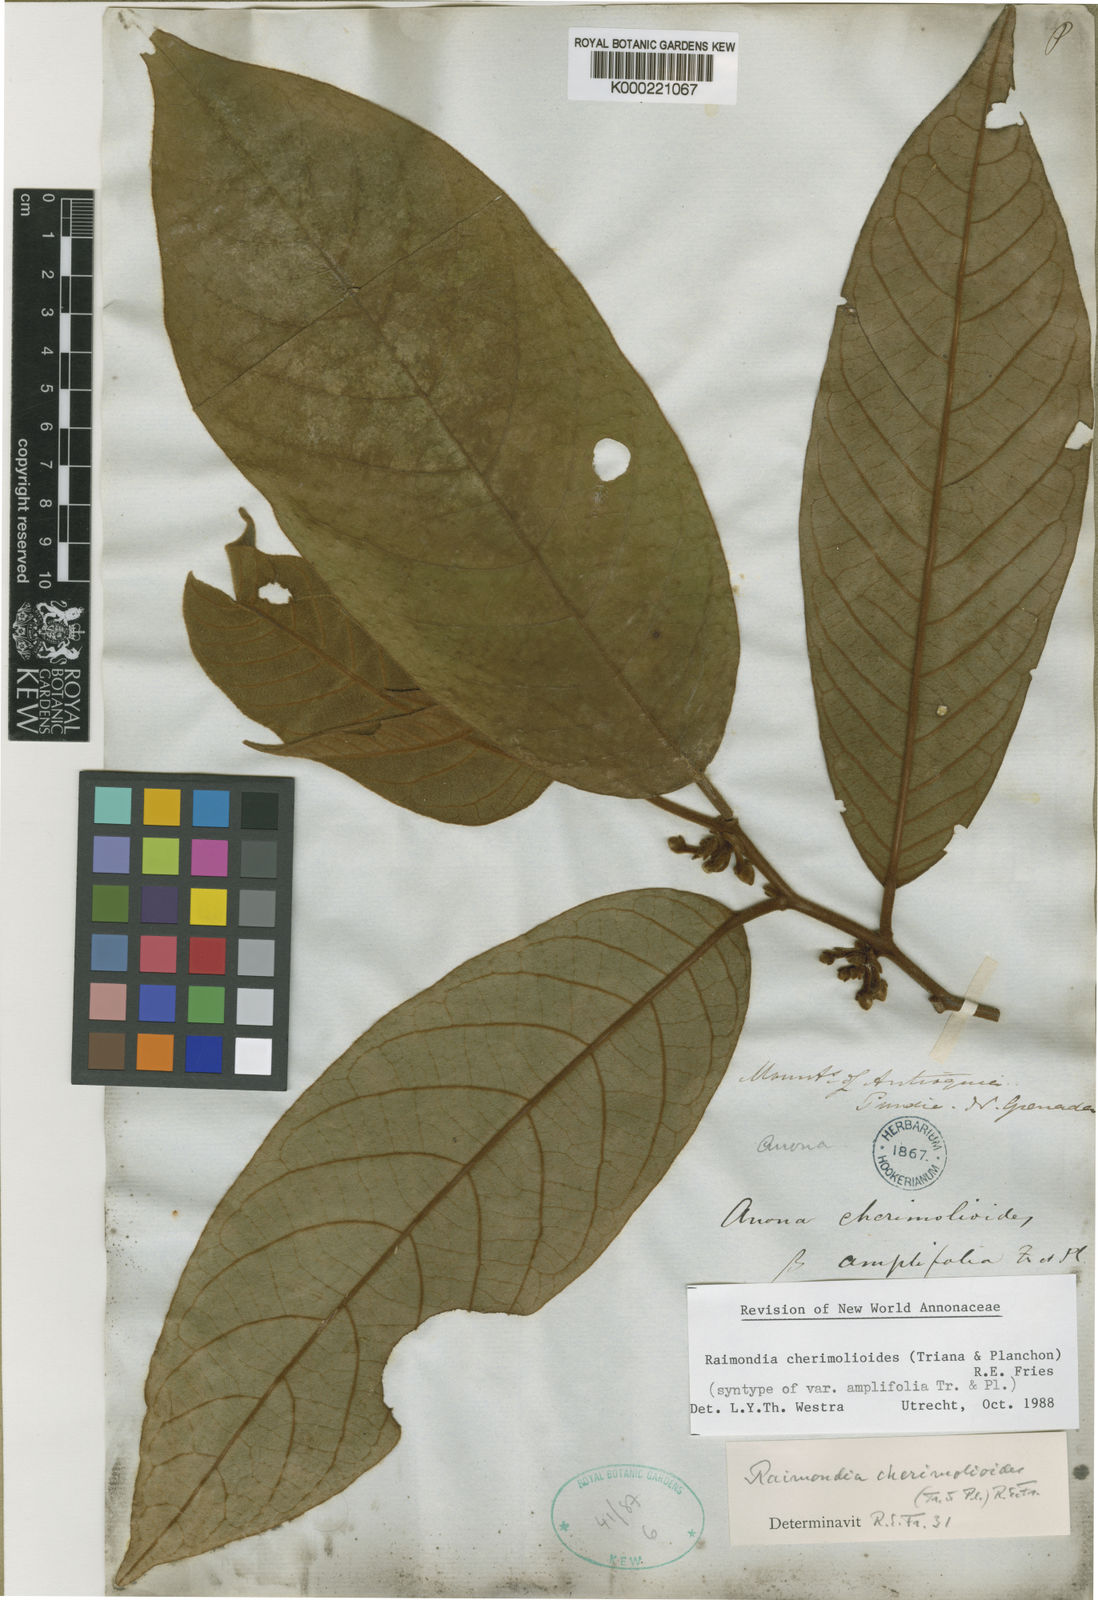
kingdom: Plantae
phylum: Tracheophyta
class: Magnoliopsida
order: Magnoliales
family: Annonaceae
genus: Annona
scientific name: Annona cherimolioides
